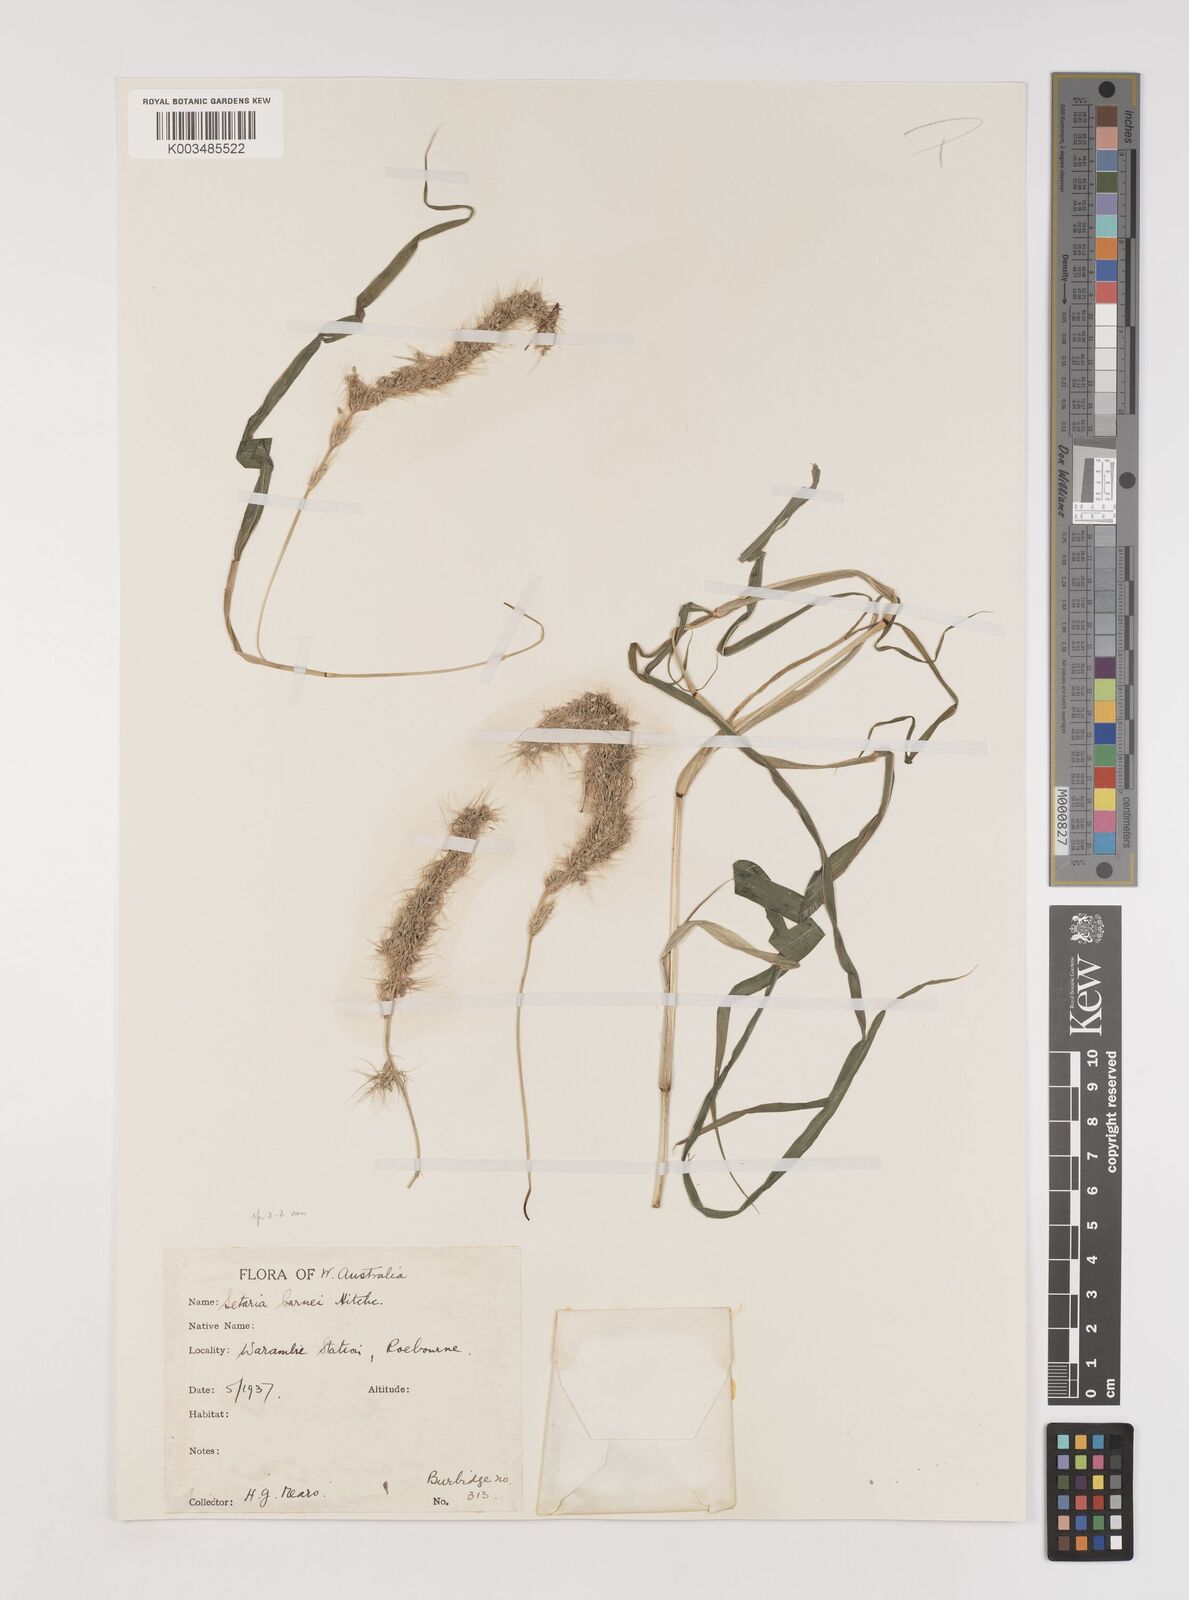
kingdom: Plantae
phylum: Tracheophyta
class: Liliopsida
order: Poales
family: Poaceae
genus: Setaria
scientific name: Setaria verticillata
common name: Hooked bristlegrass
